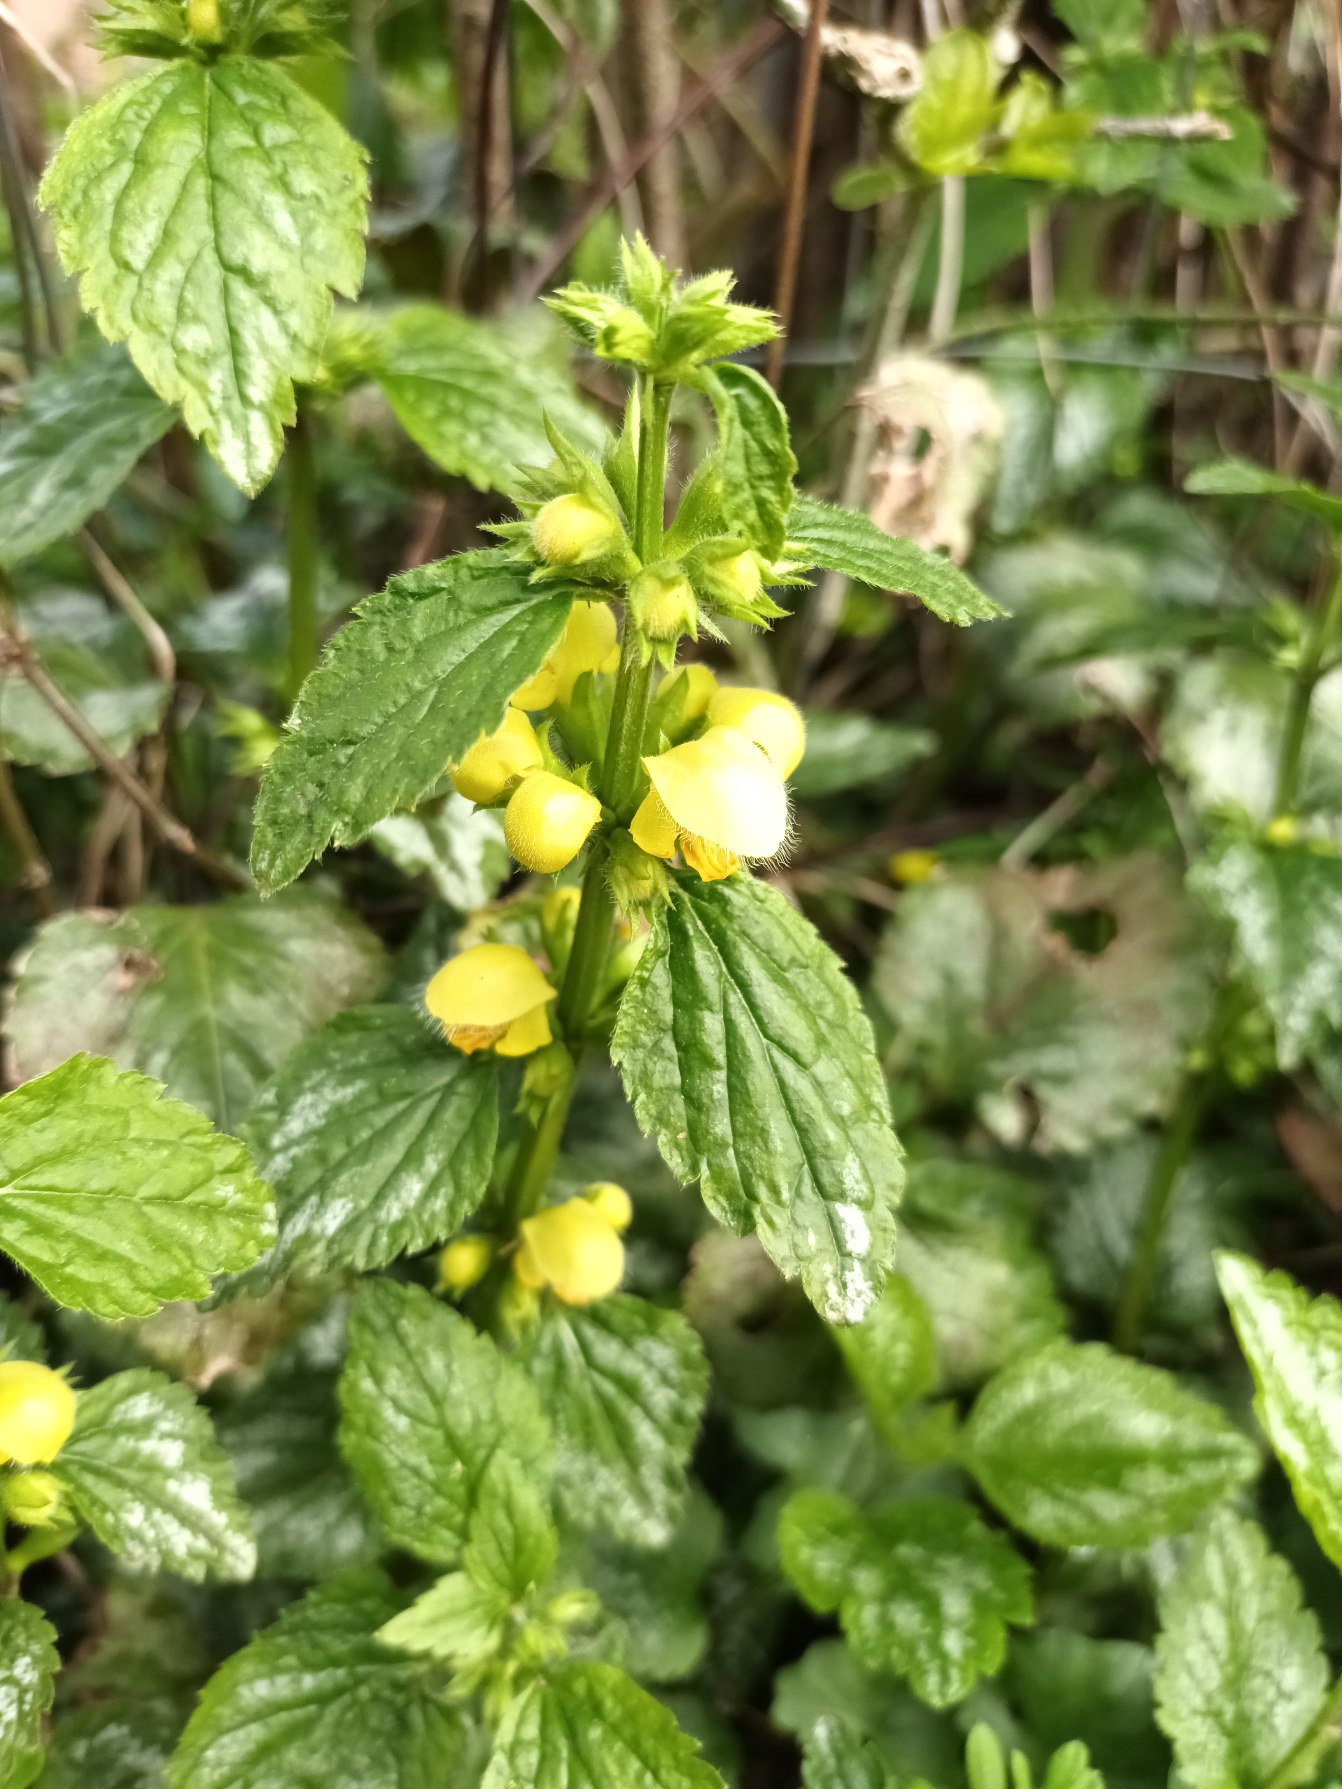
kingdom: Plantae
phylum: Tracheophyta
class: Magnoliopsida
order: Lamiales
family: Lamiaceae
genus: Lamium
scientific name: Lamium galeobdolon
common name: Have-guldnælde
